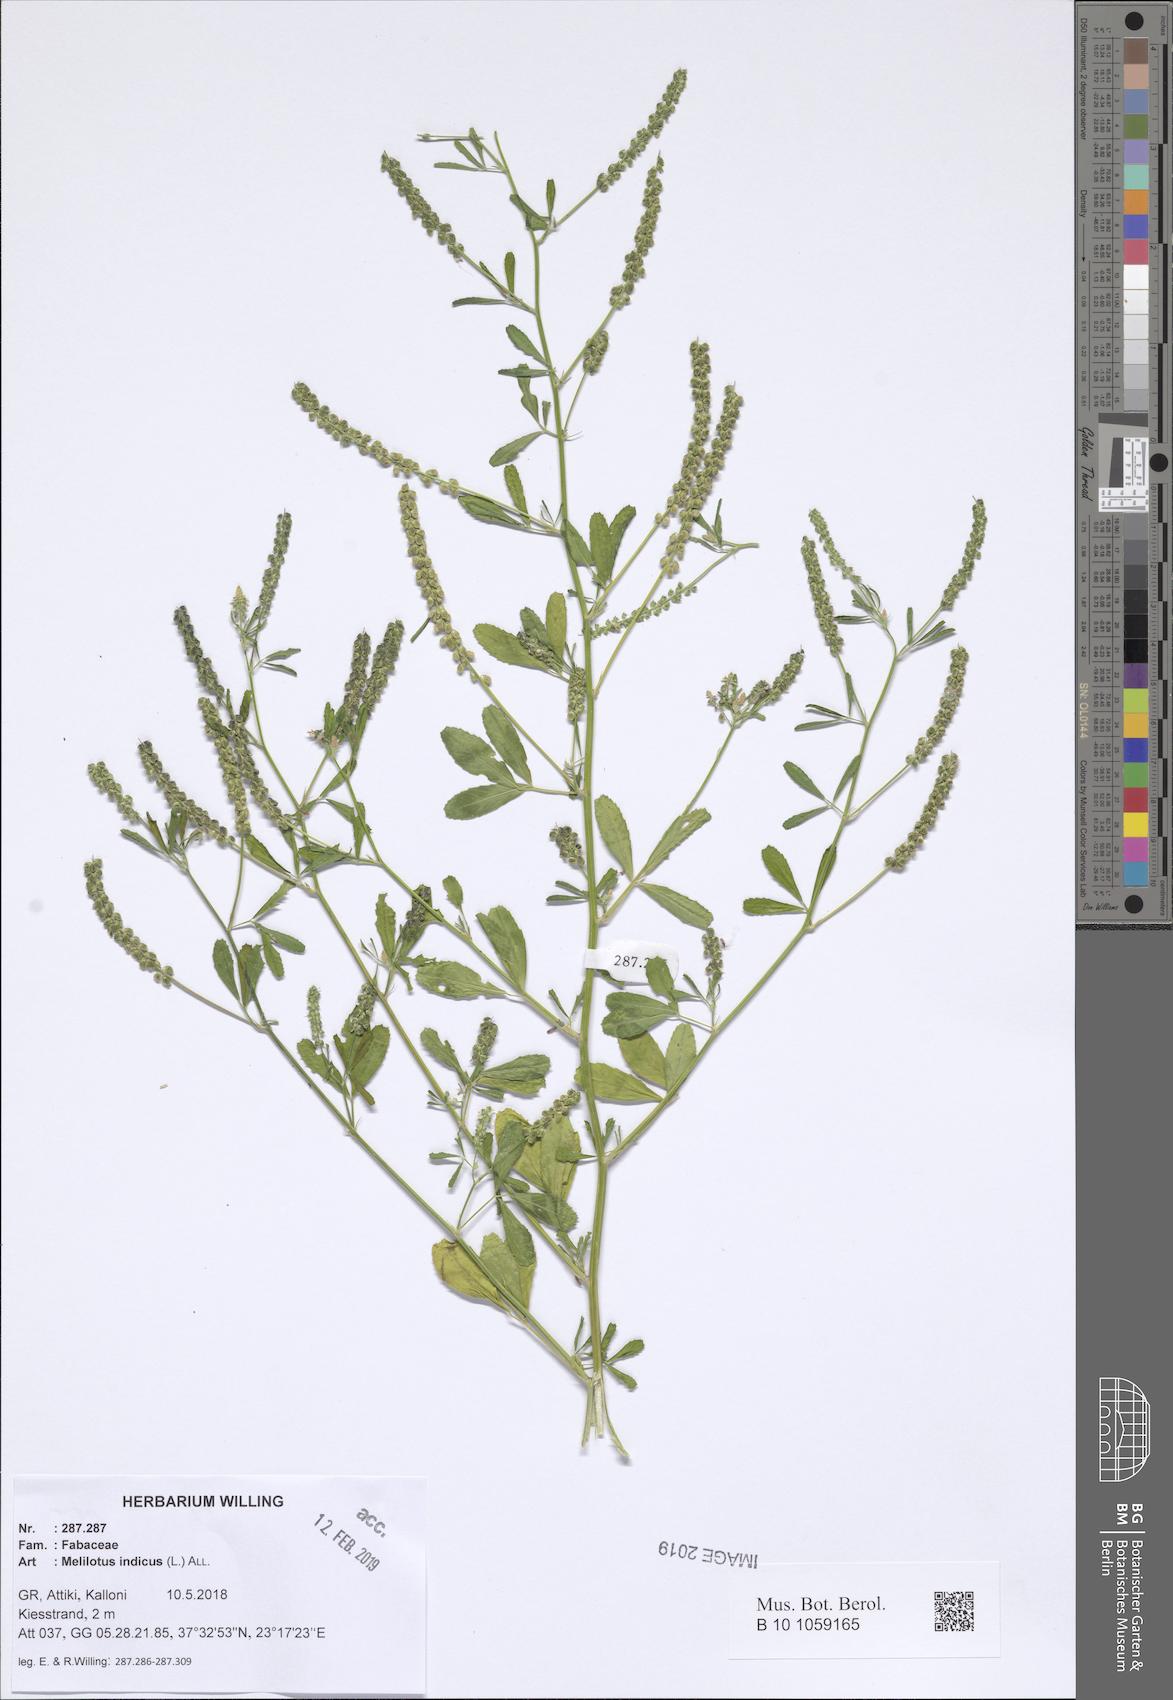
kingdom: Plantae
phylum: Tracheophyta
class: Magnoliopsida
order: Fabales
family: Fabaceae
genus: Melilotus
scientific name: Melilotus indicus
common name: Small melilot
